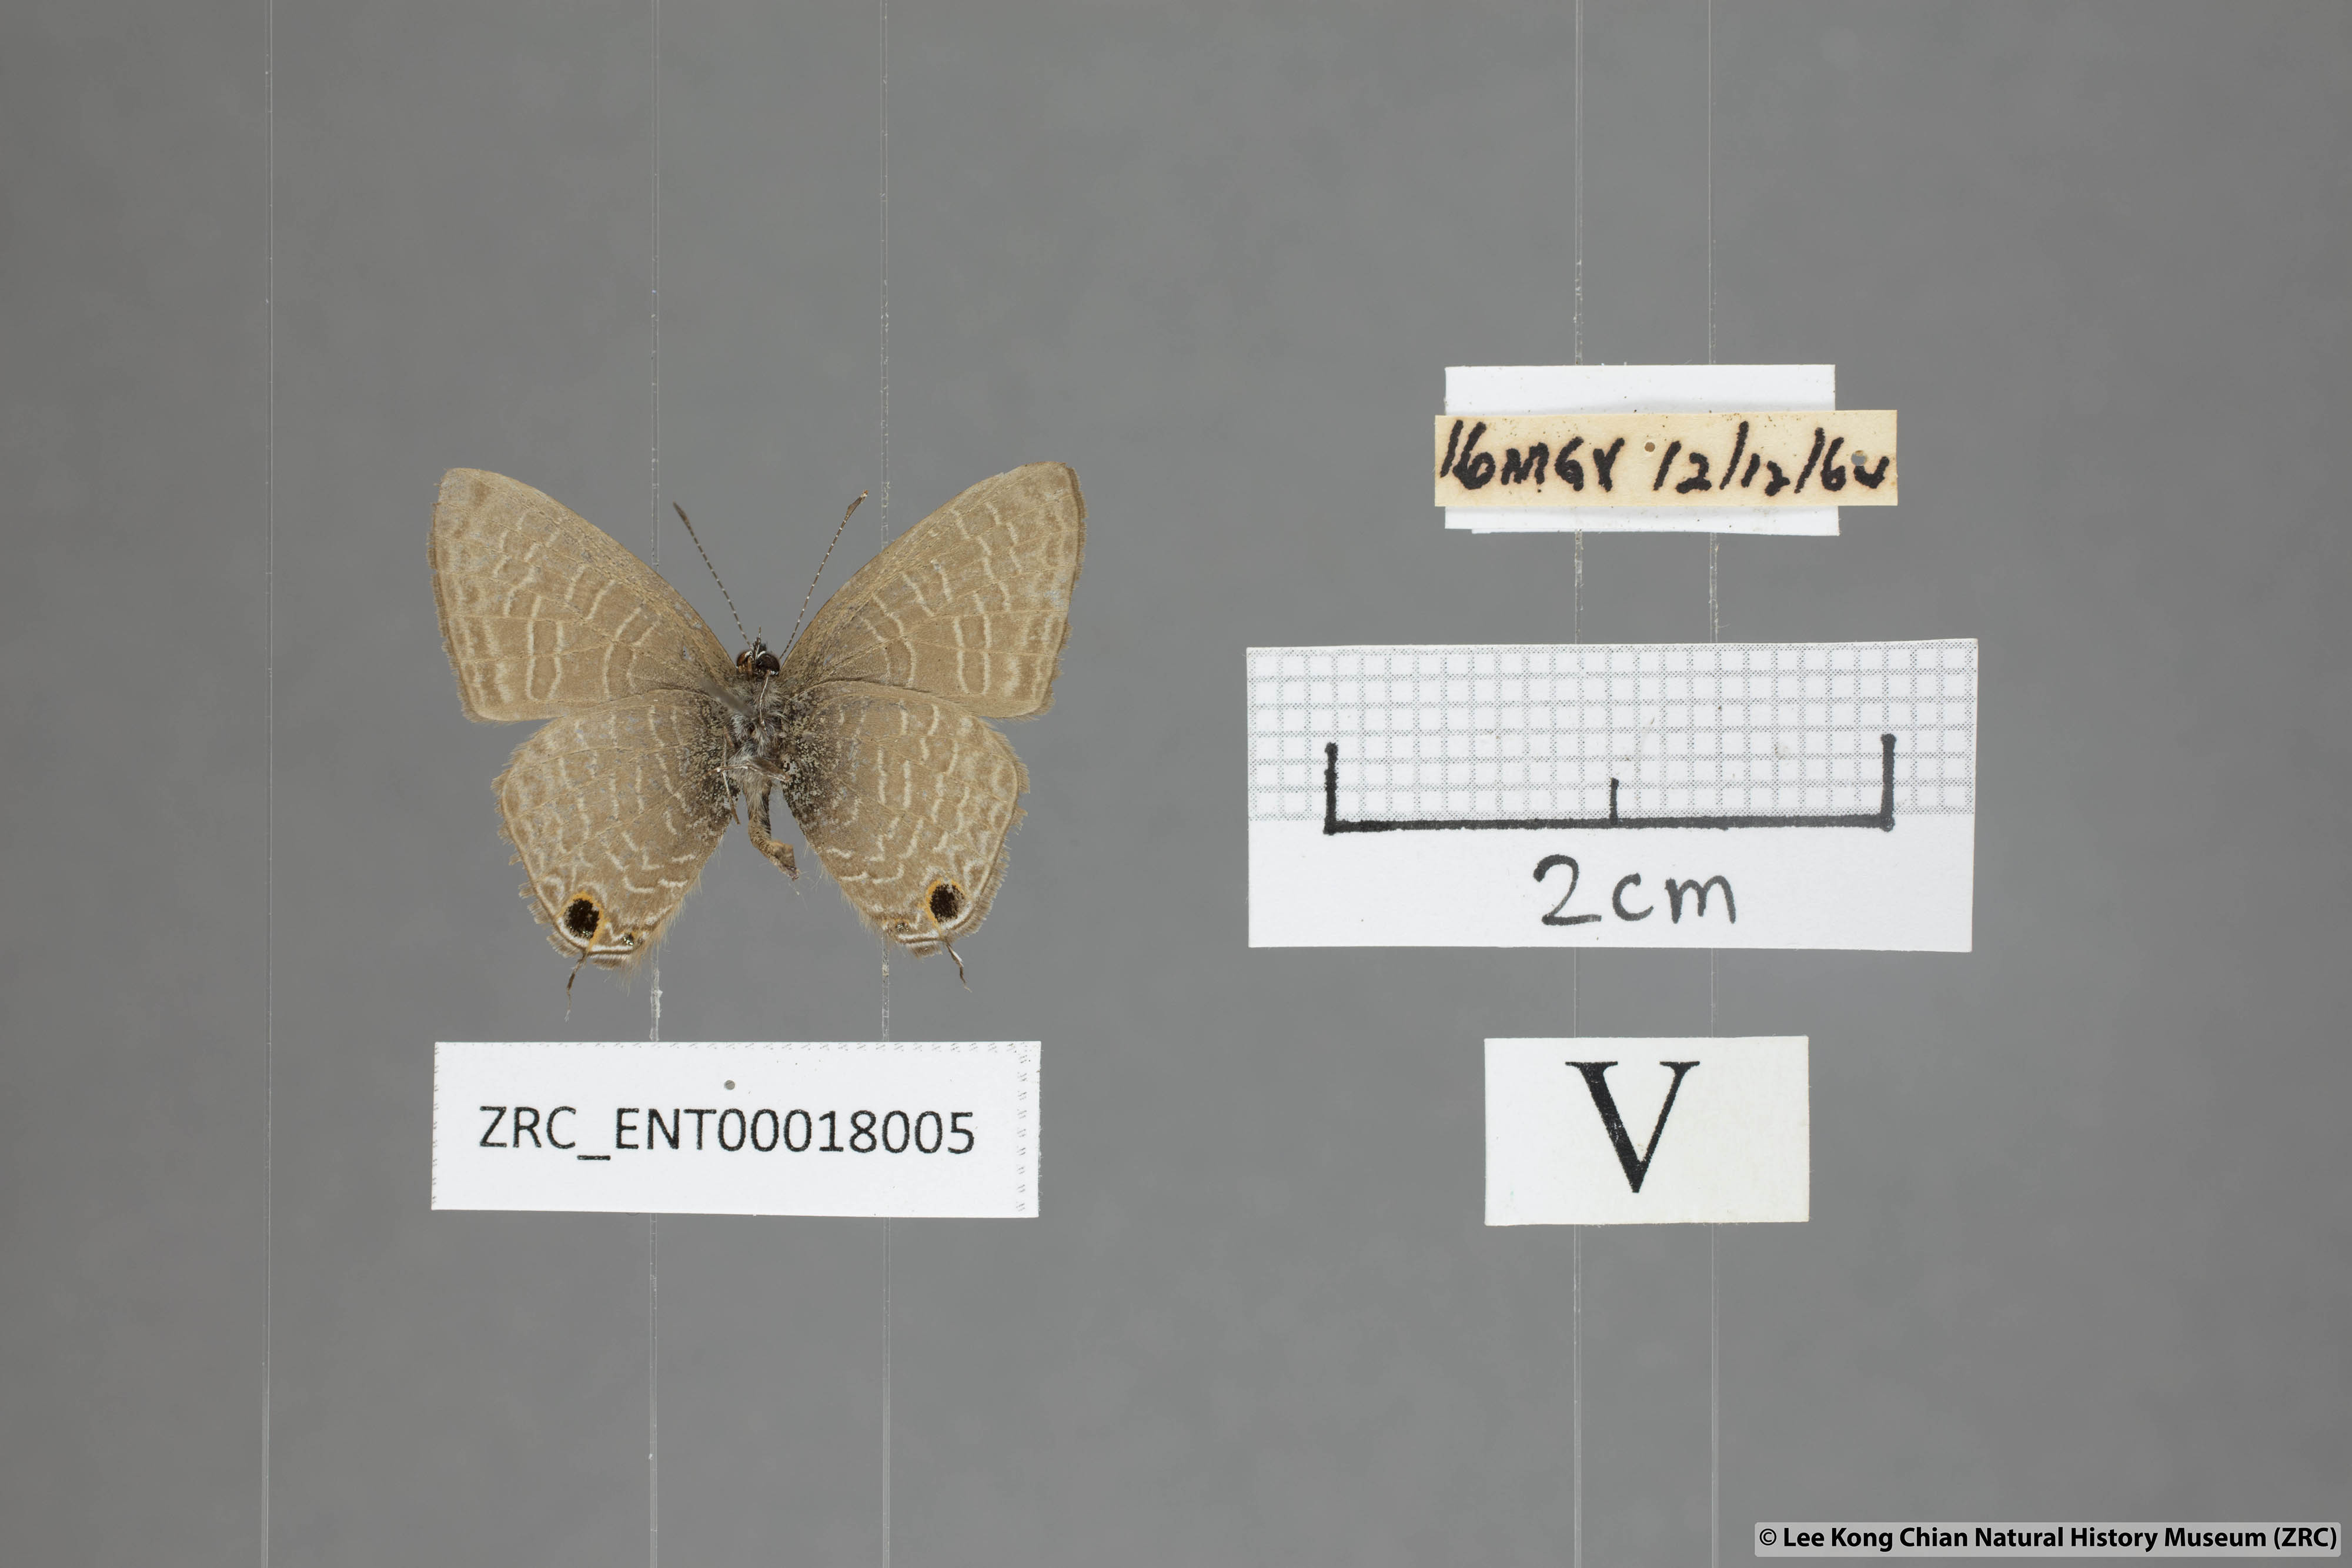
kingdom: Animalia
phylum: Arthropoda
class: Insecta
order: Lepidoptera
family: Lycaenidae
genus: Ionolyce
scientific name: Ionolyce helicon
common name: Pointed line blue
